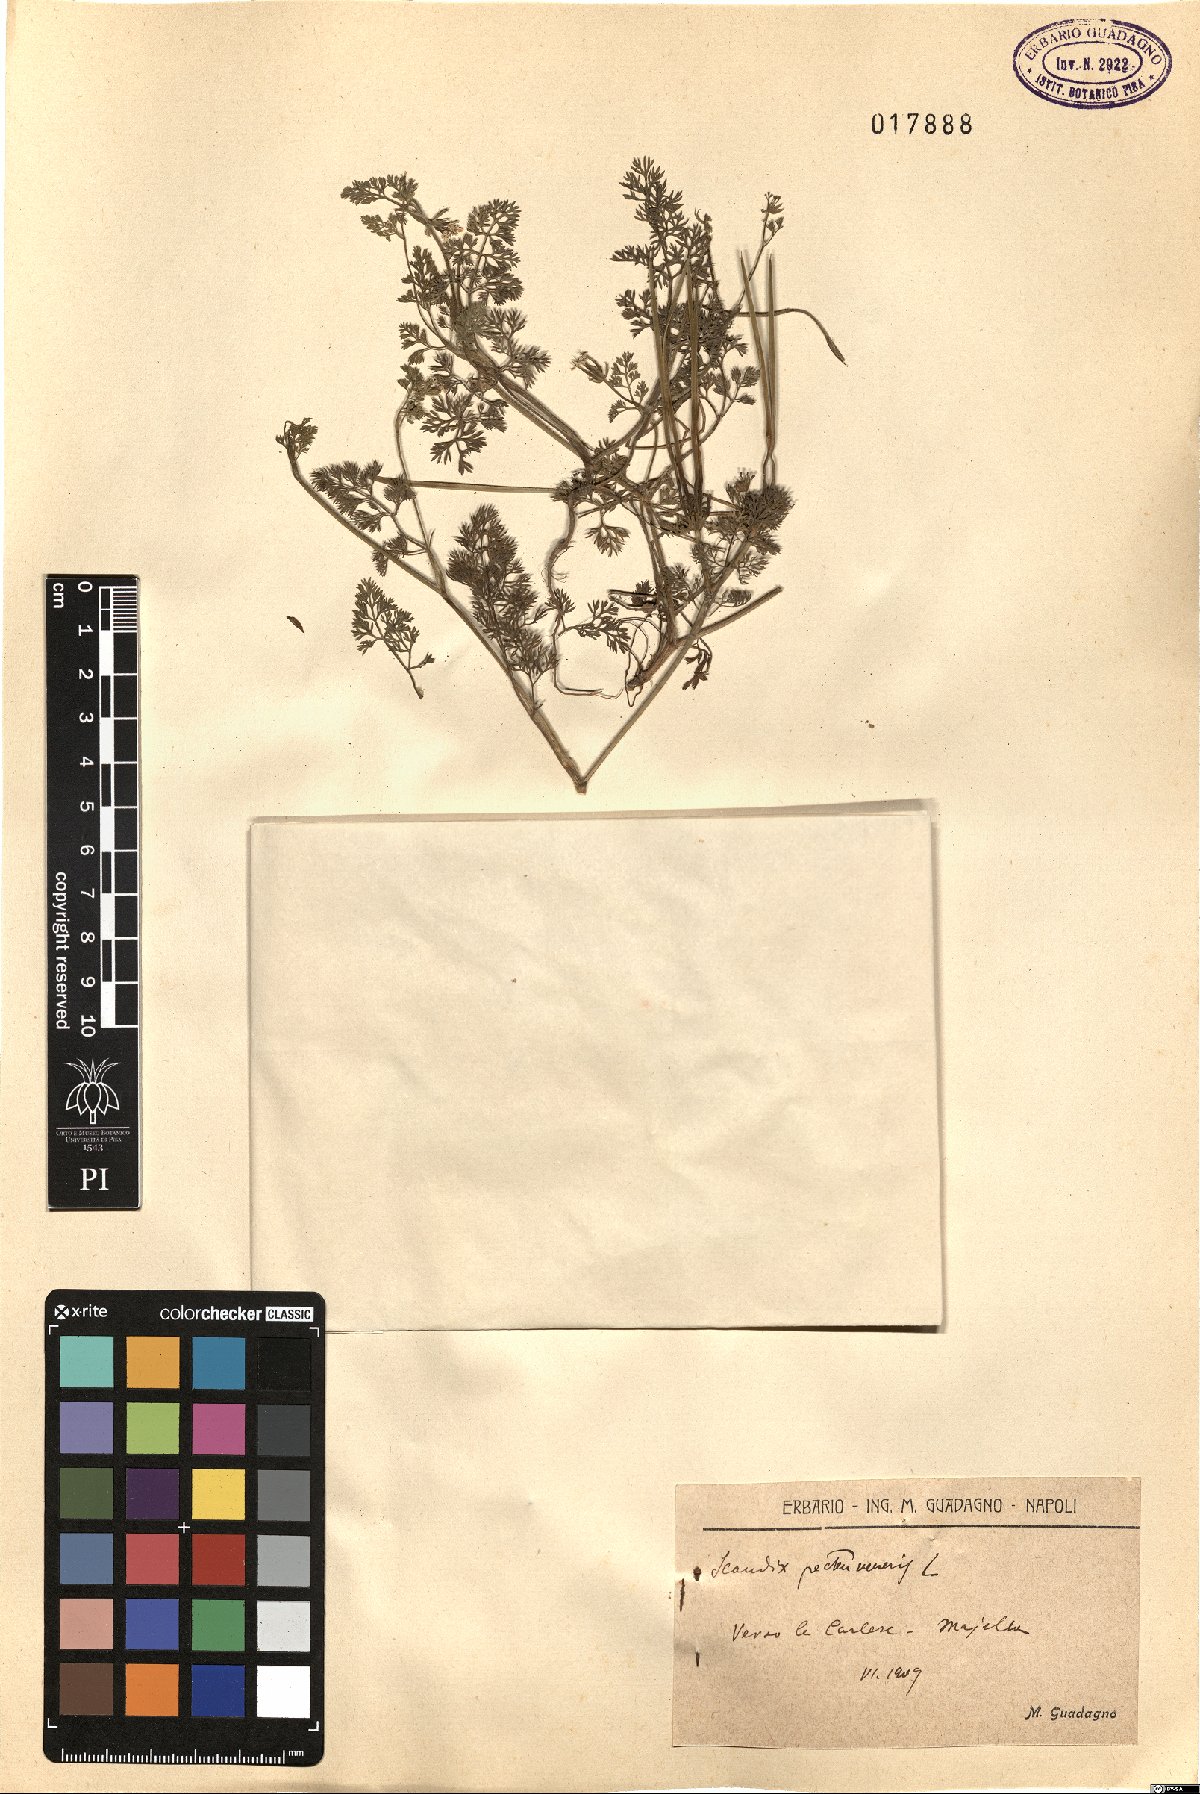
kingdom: Plantae
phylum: Tracheophyta
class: Magnoliopsida
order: Apiales
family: Apiaceae
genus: Scandix
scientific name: Scandix pecten-veneris
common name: Shepherd's-needle
